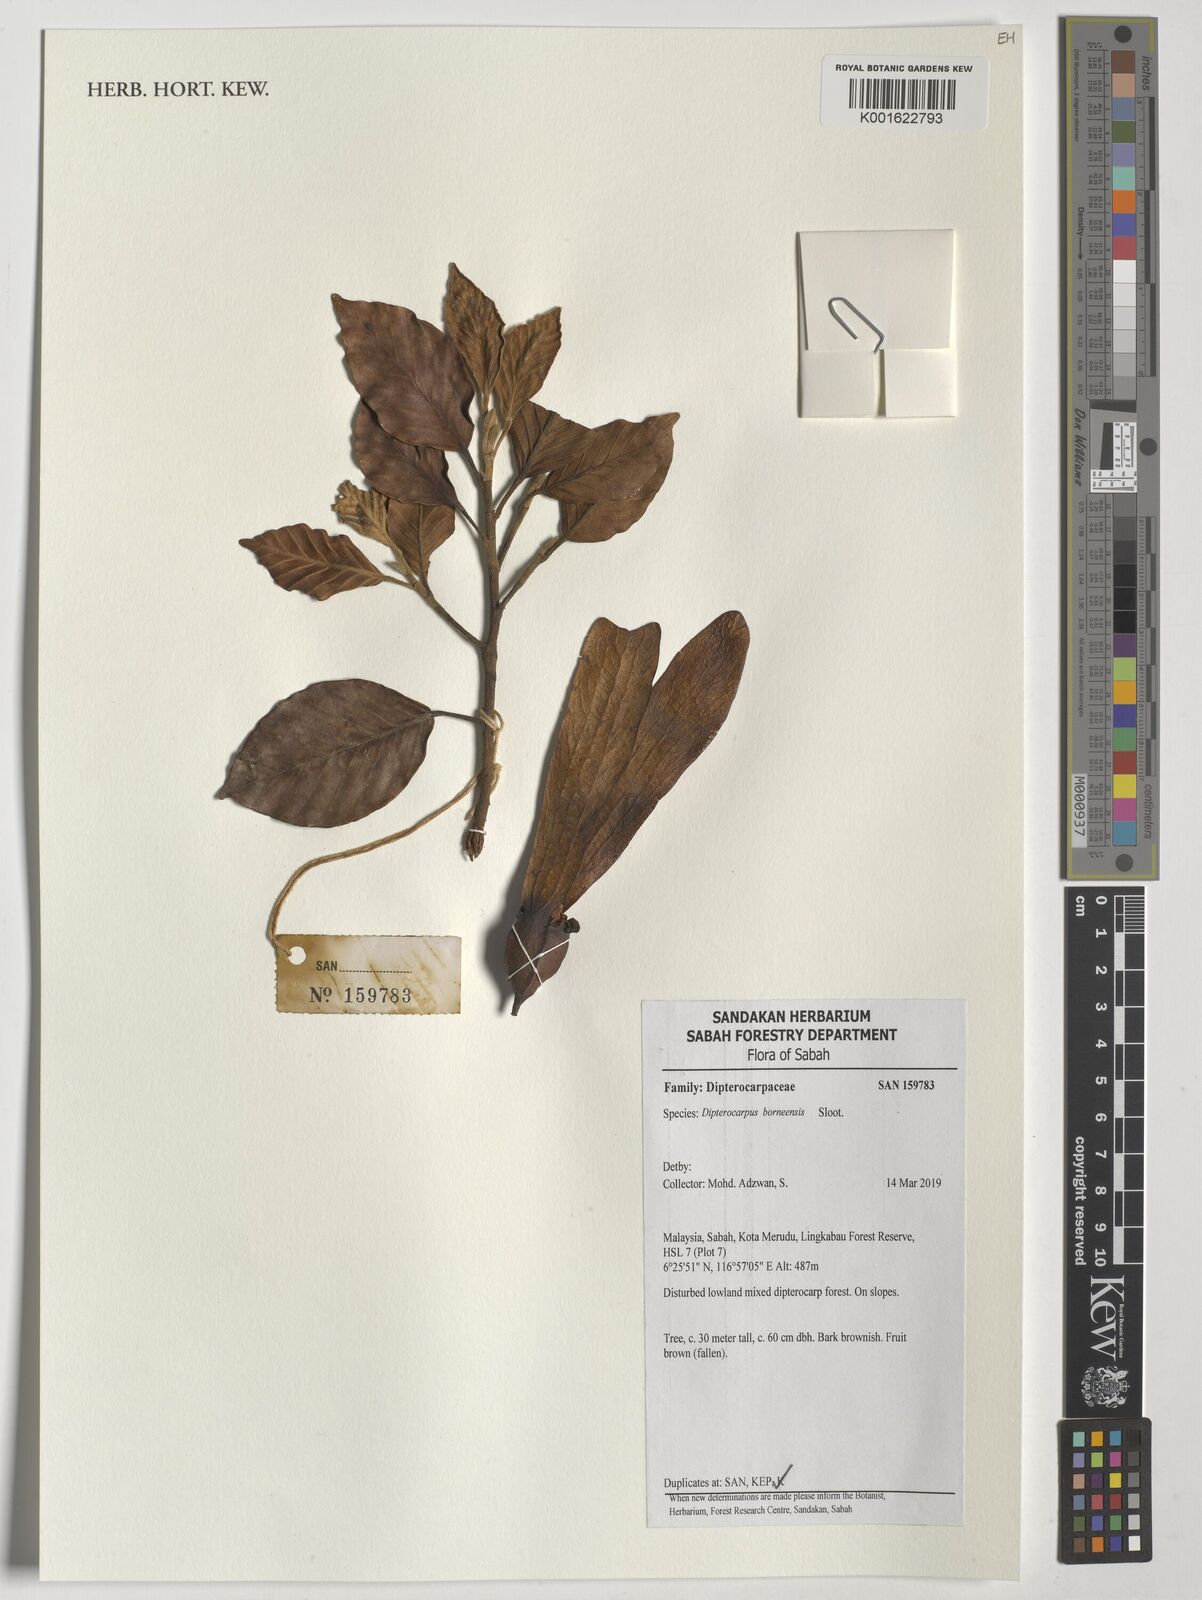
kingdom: Plantae
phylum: Tracheophyta
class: Magnoliopsida
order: Malvales
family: Dipterocarpaceae
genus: Dipterocarpus
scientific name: Dipterocarpus borneensis
